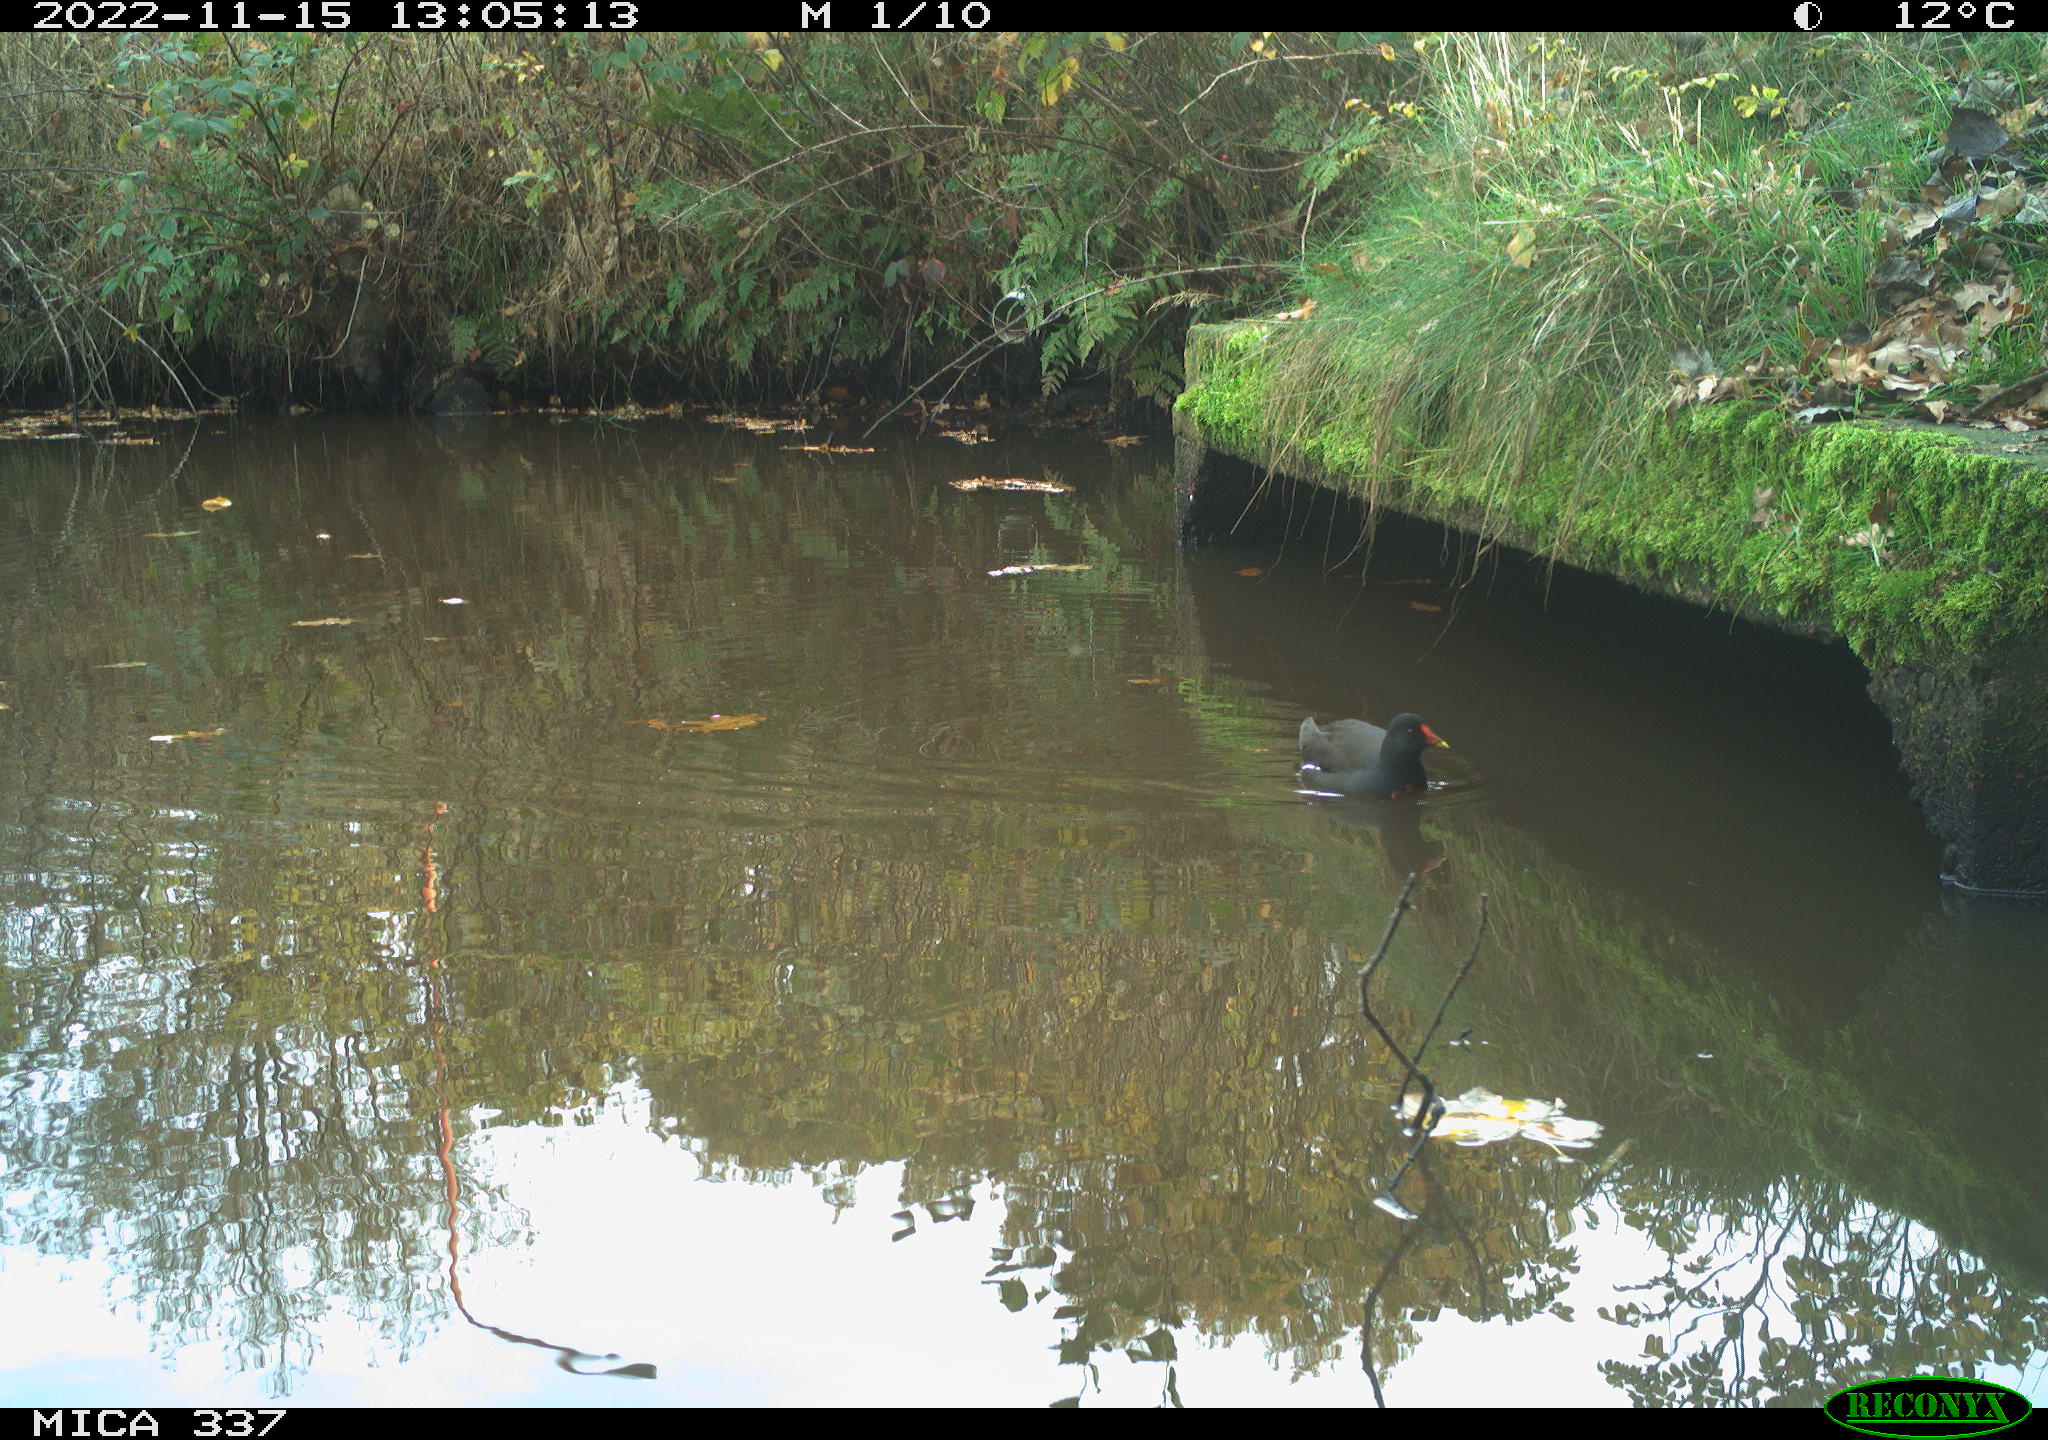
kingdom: Animalia
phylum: Chordata
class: Aves
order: Gruiformes
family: Rallidae
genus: Gallinula
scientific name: Gallinula chloropus
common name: Common moorhen
